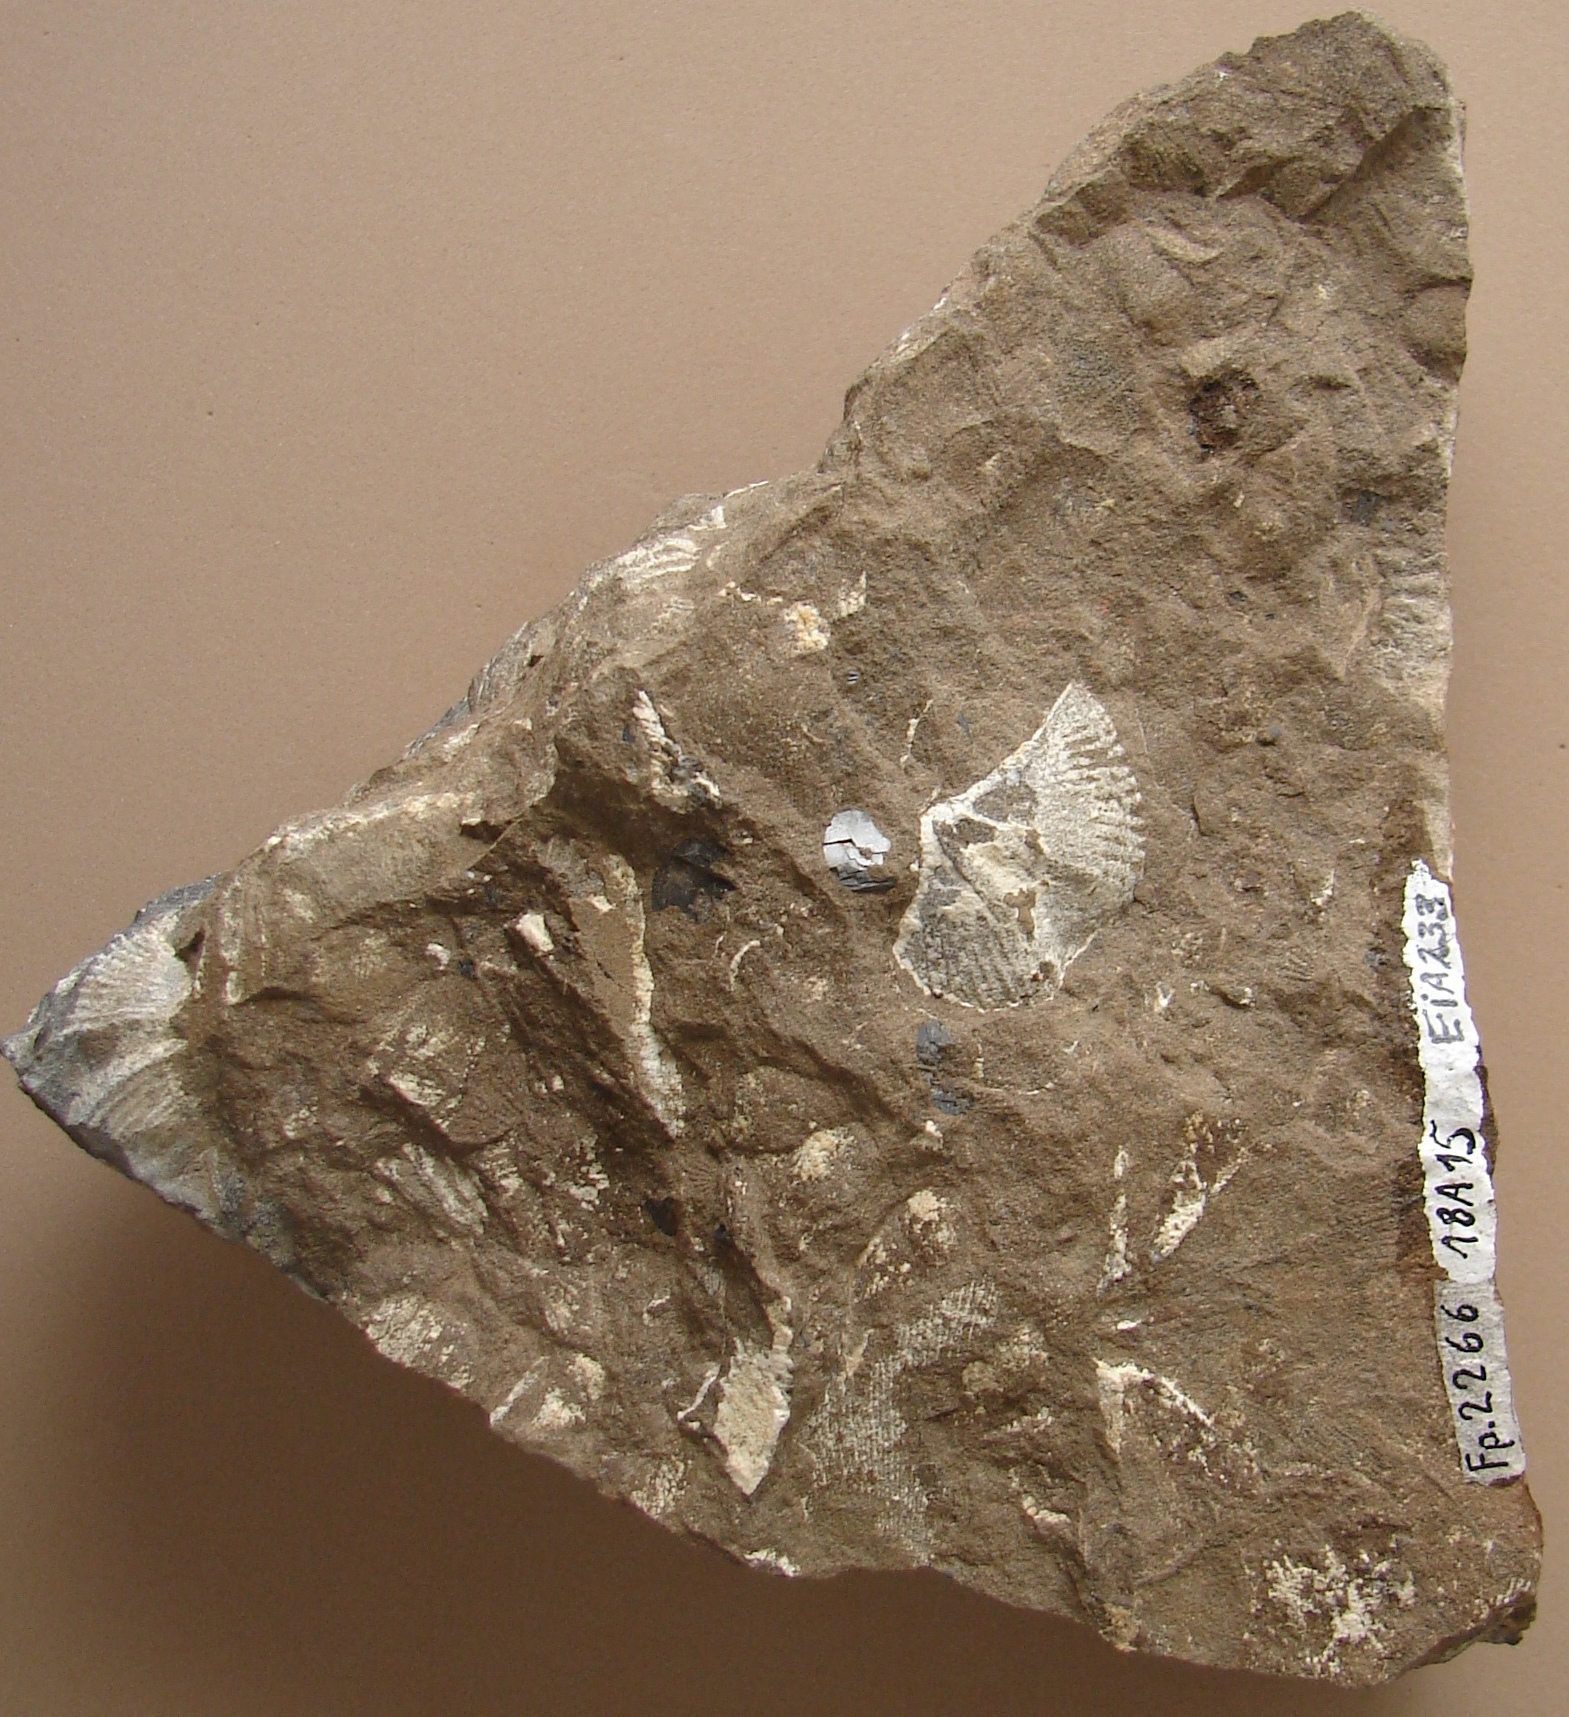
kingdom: Animalia
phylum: Mollusca
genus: Tolmaia
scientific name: Tolmaia
